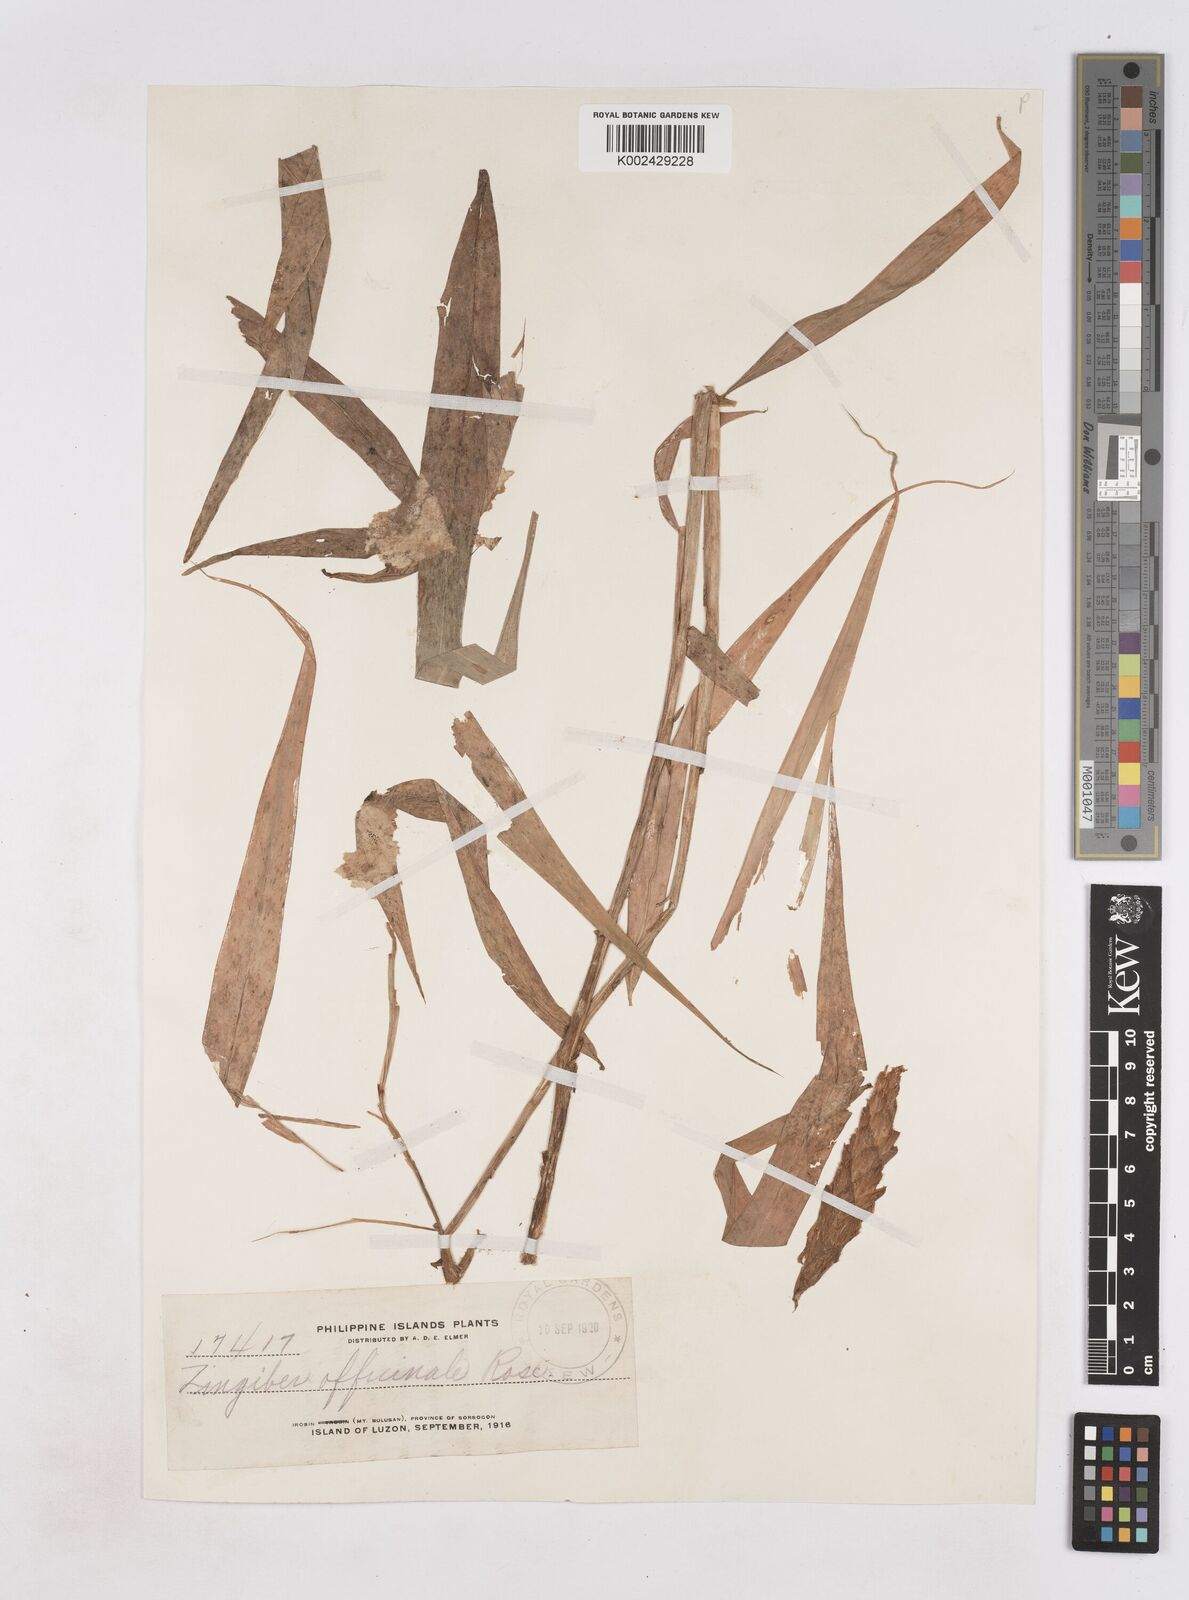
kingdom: Plantae
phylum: Tracheophyta
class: Liliopsida
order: Zingiberales
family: Zingiberaceae
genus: Zingiber
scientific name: Zingiber officinale
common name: Ginger
